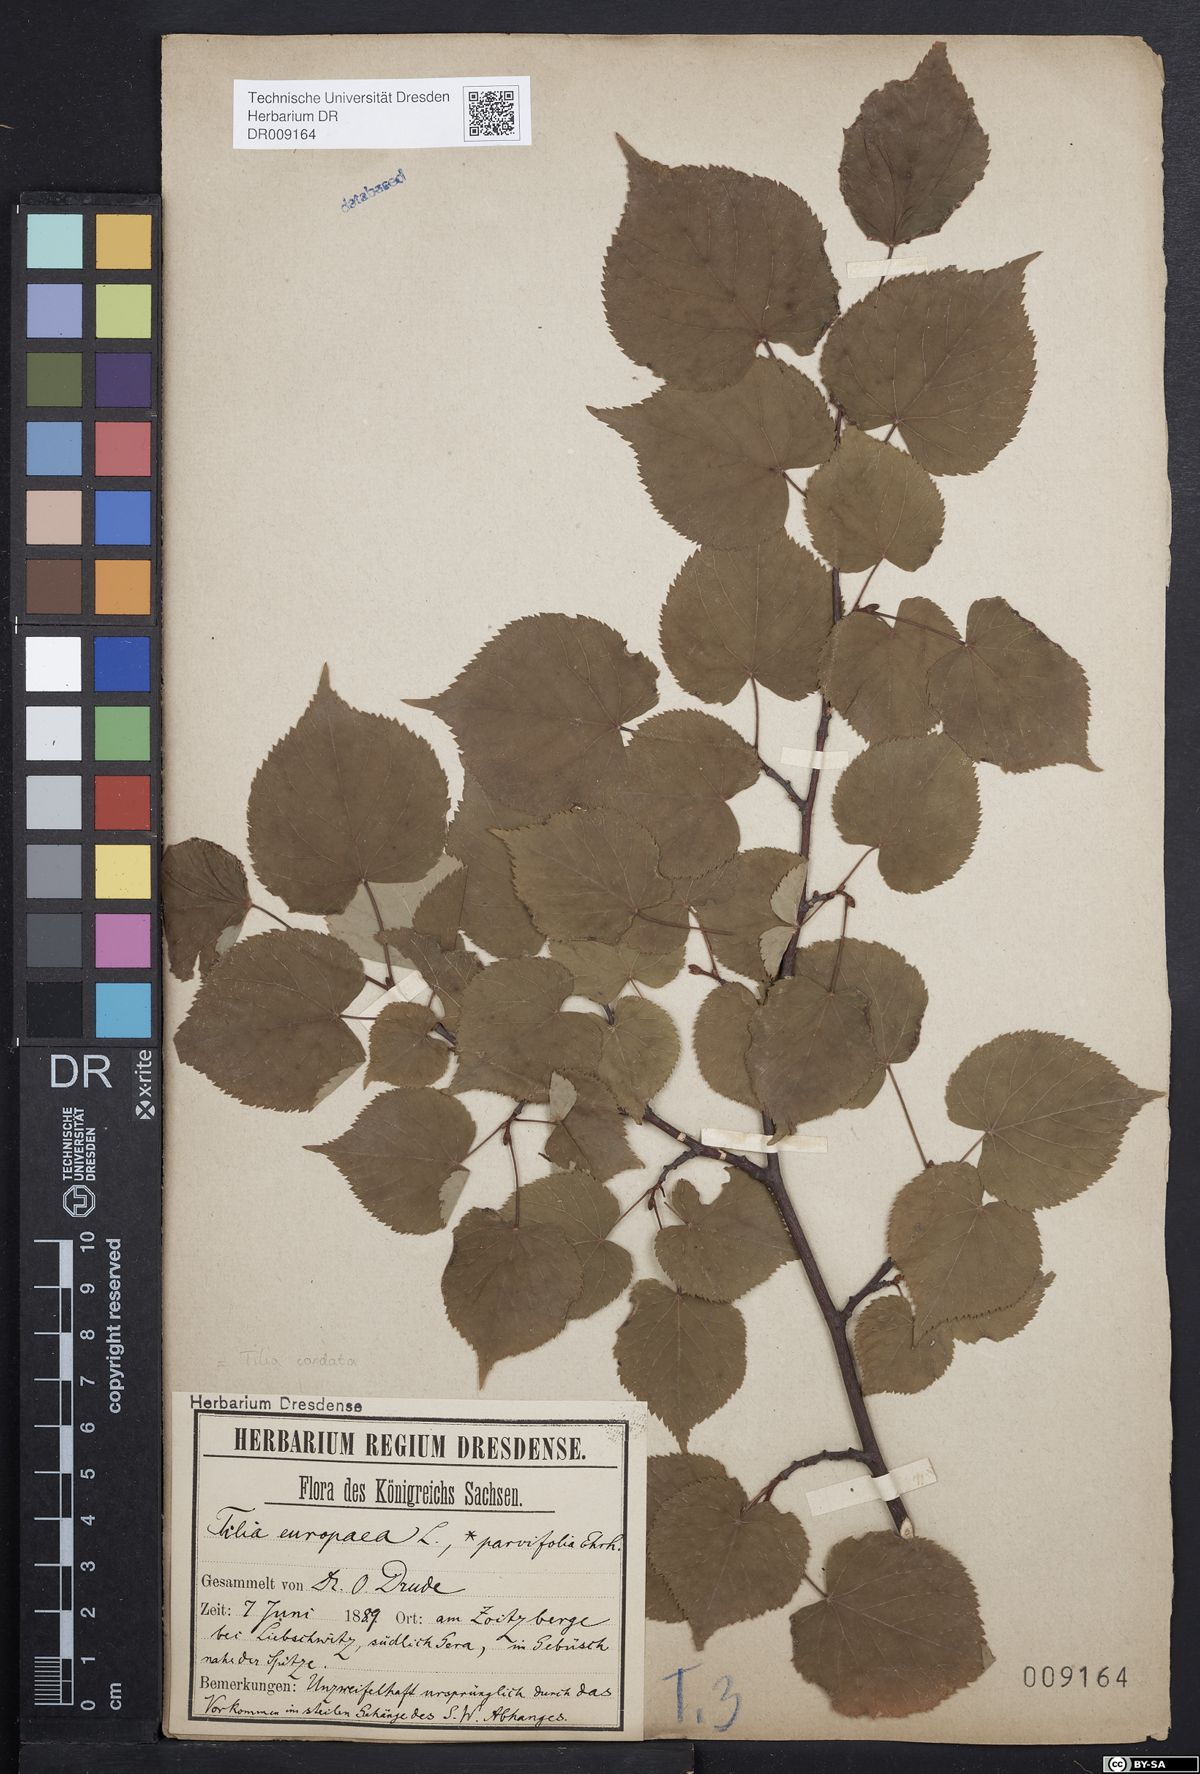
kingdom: Plantae
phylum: Tracheophyta
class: Magnoliopsida
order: Malvales
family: Malvaceae
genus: Tilia
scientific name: Tilia cordata
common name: Small-leaved lime
